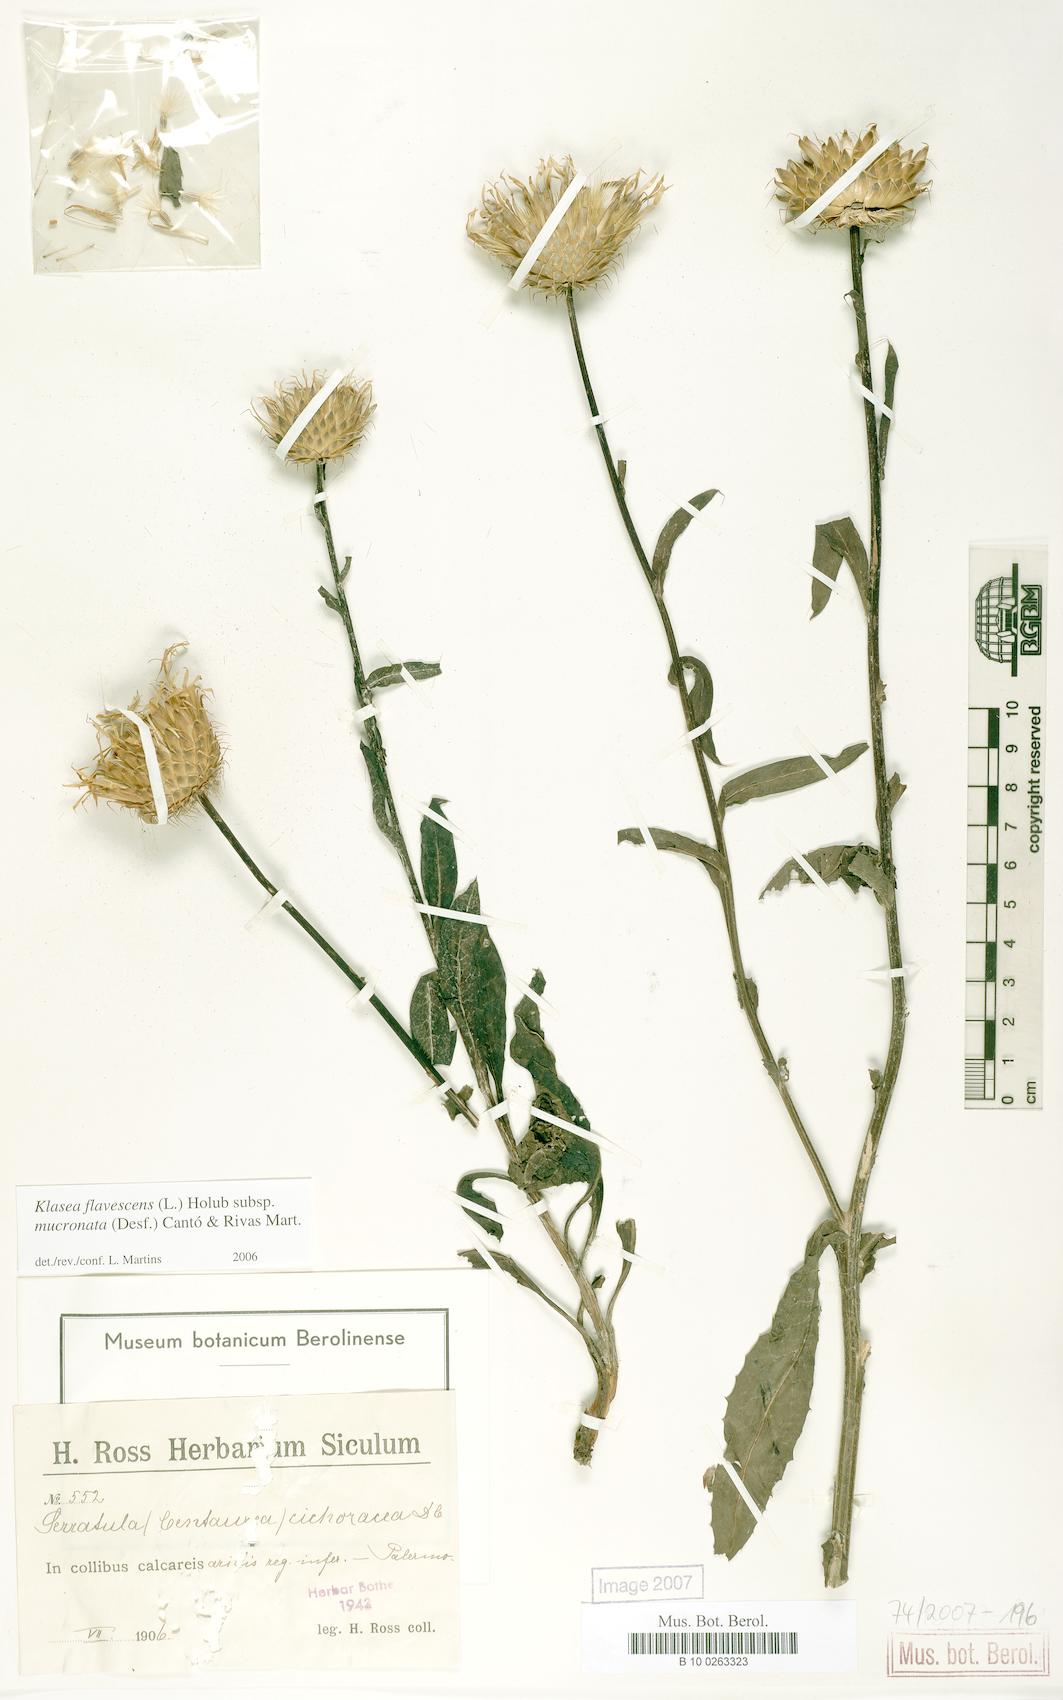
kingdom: Plantae
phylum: Tracheophyta
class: Magnoliopsida
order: Asterales
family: Asteraceae
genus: Klasea
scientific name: Klasea flavescens
